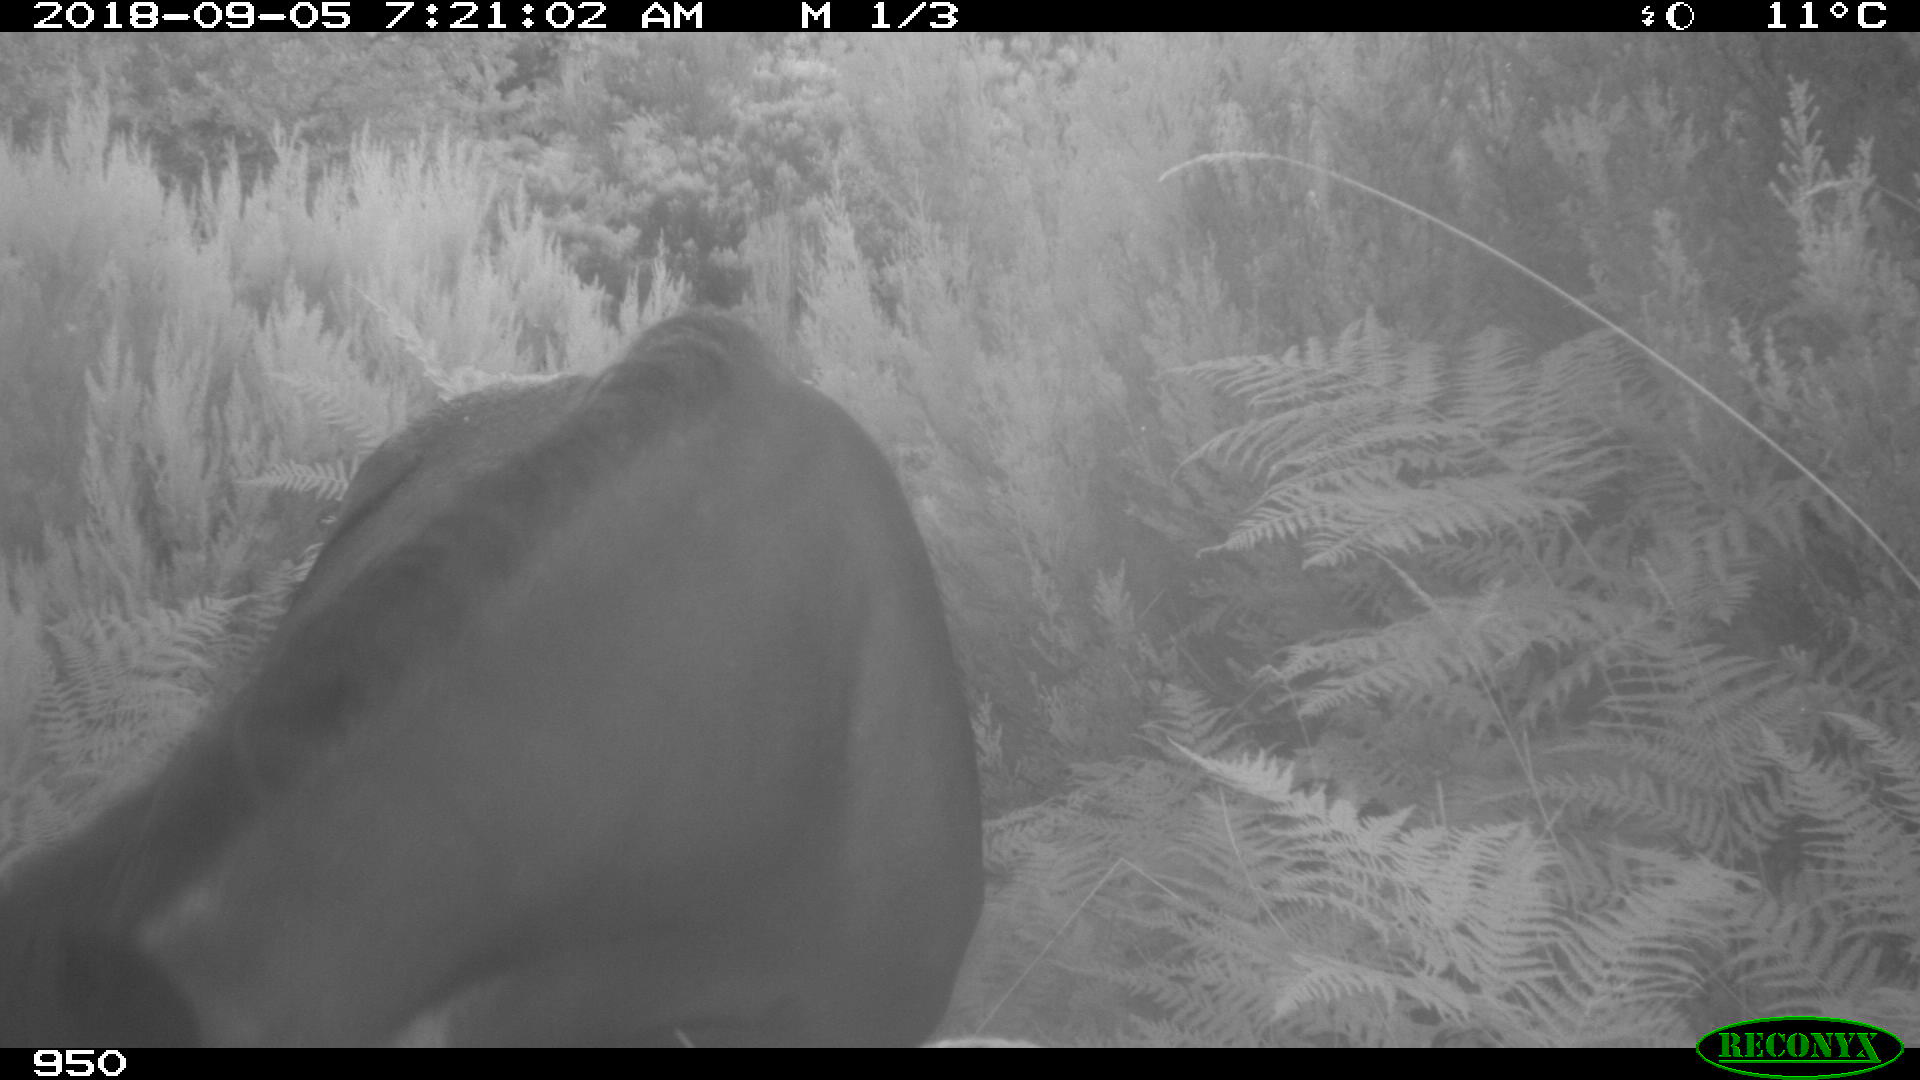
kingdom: Animalia
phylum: Chordata
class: Mammalia
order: Perissodactyla
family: Equidae
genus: Equus
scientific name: Equus caballus
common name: Horse
